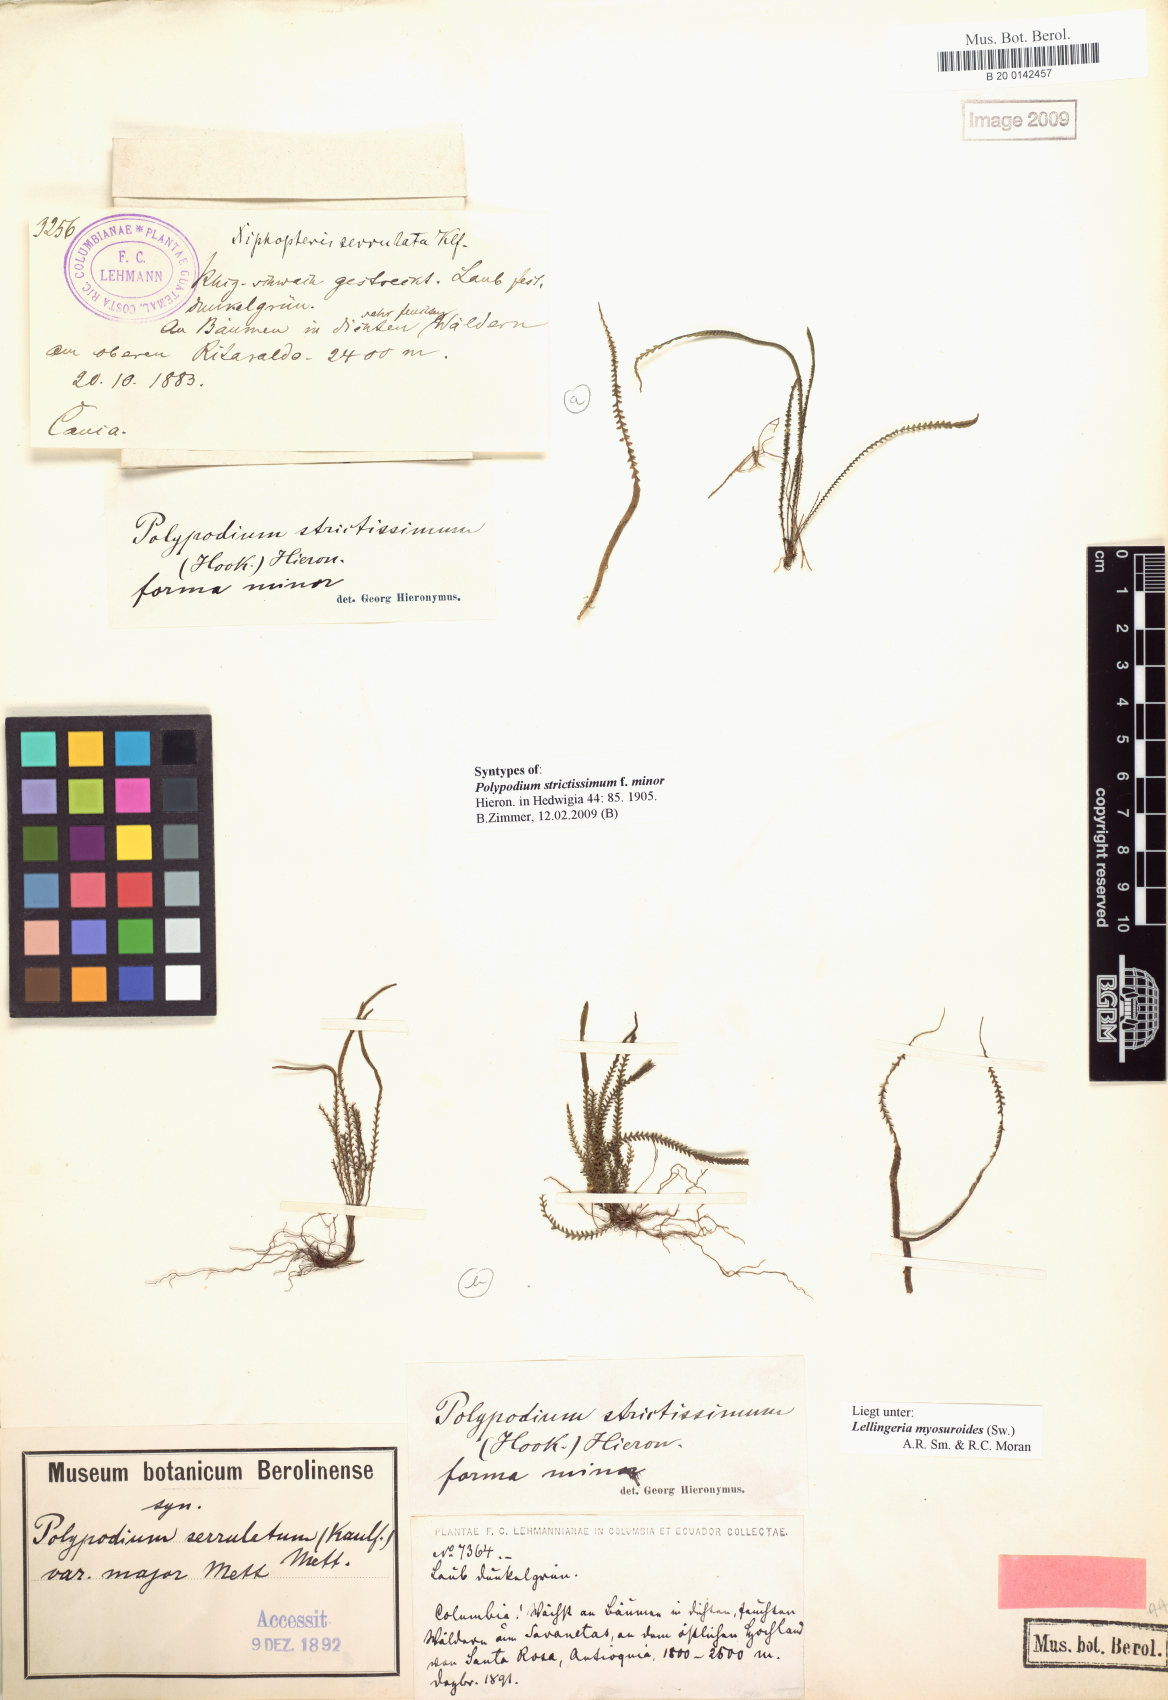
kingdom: Plantae
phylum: Tracheophyta
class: Polypodiopsida
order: Polypodiales
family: Polypodiaceae
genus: Stenogrammitis
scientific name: Stenogrammitis jamesonii
